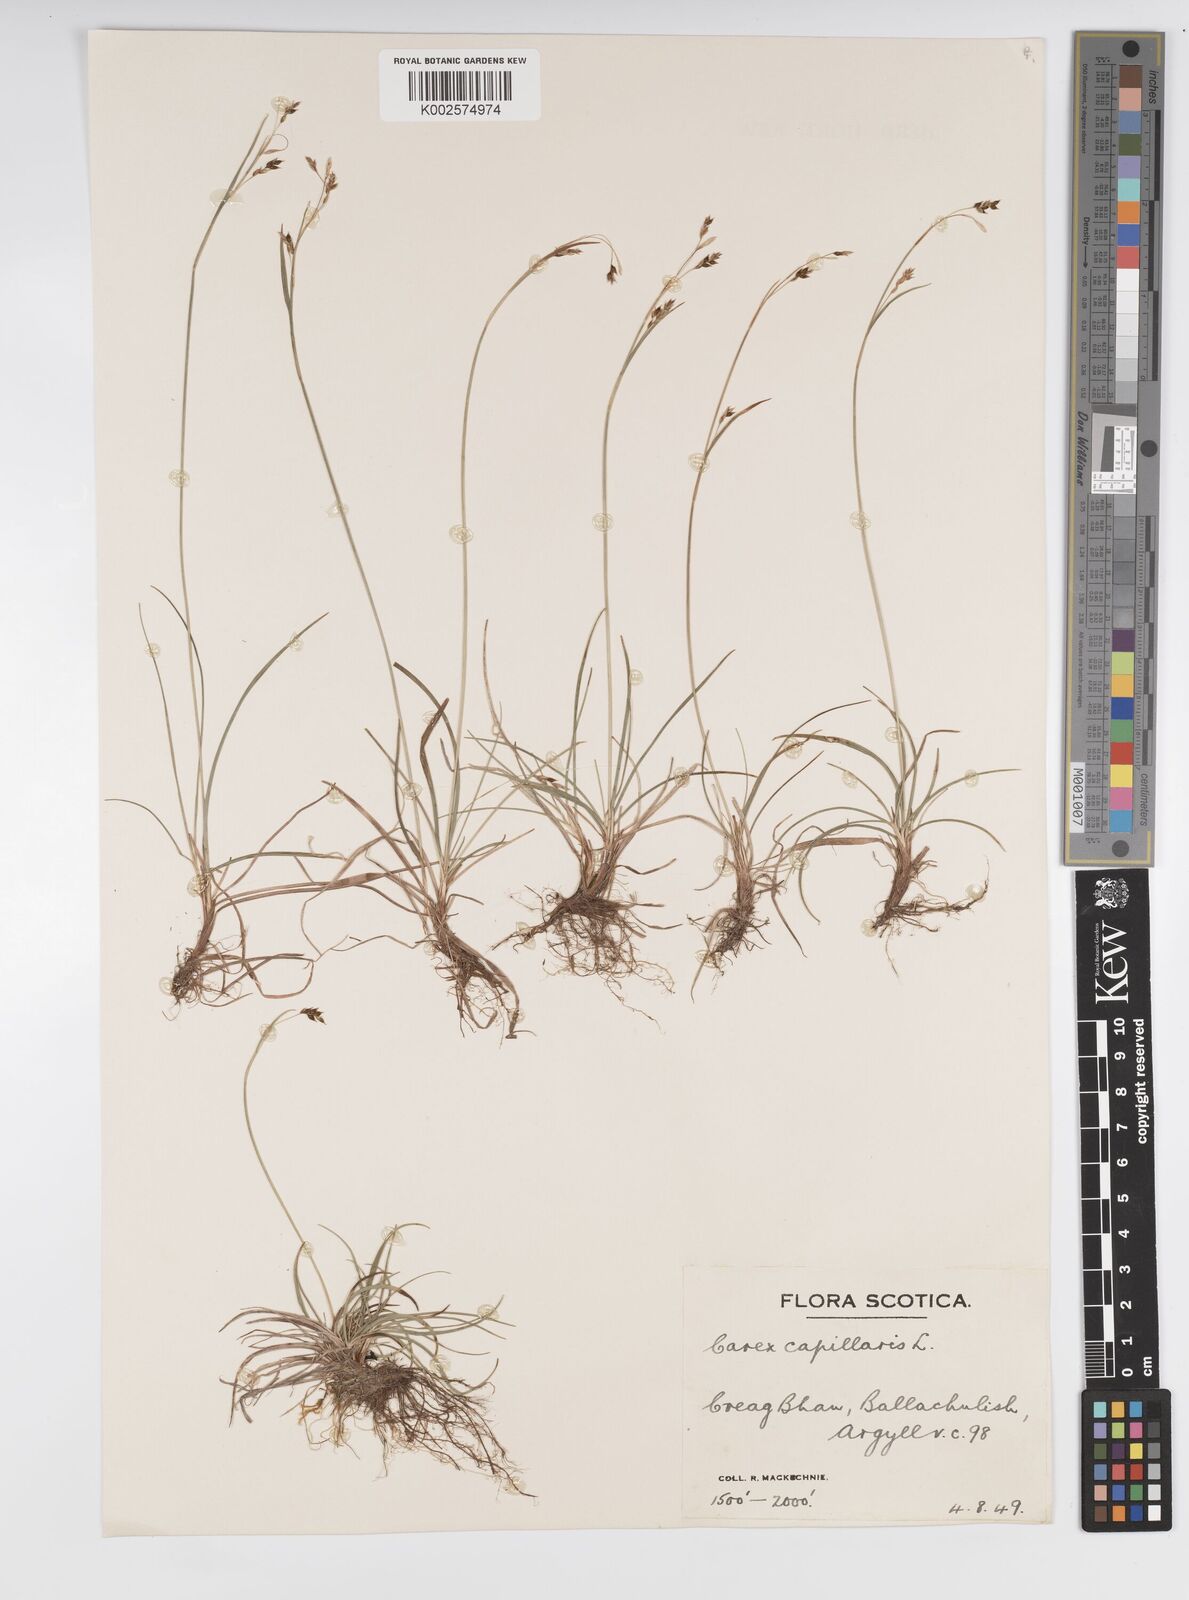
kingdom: Plantae
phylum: Tracheophyta
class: Liliopsida
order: Poales
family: Cyperaceae
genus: Carex
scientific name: Carex capillaris
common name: Hair sedge
